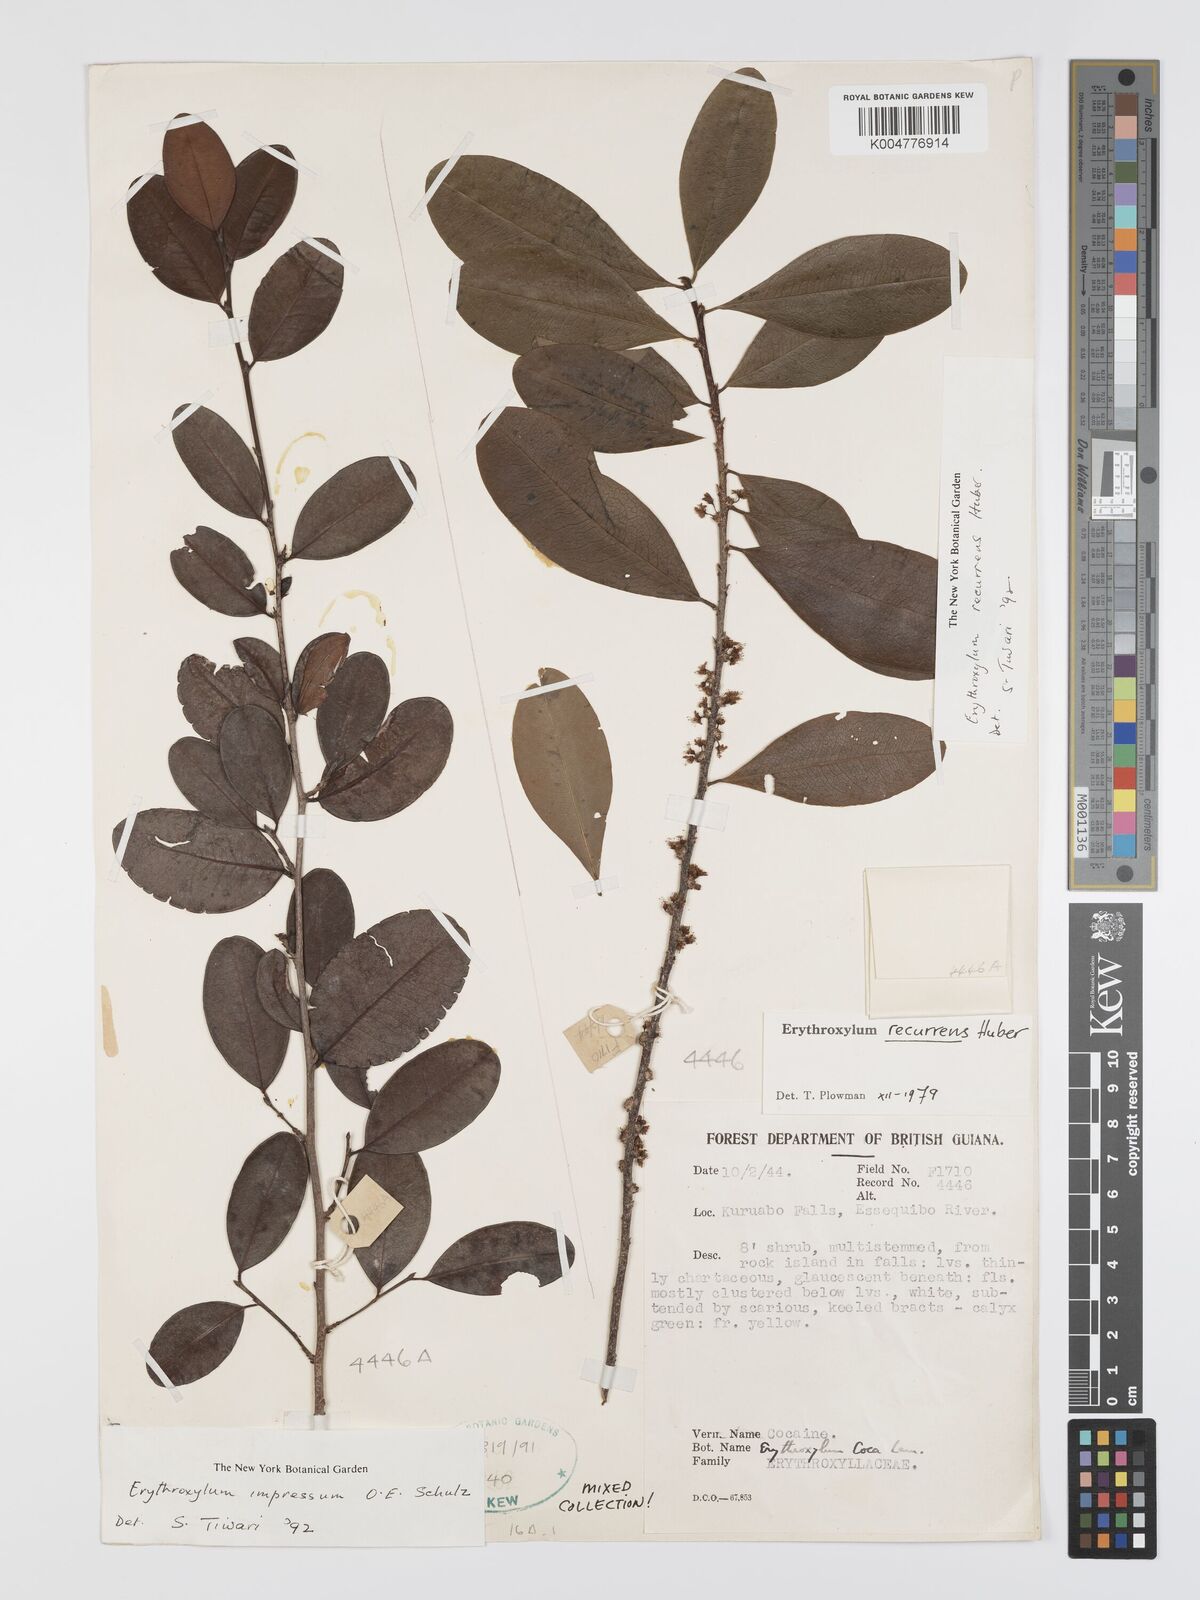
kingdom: Plantae
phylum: Tracheophyta
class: Magnoliopsida
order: Malpighiales
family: Erythroxylaceae
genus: Erythroxylum
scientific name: Erythroxylum gracilipes
